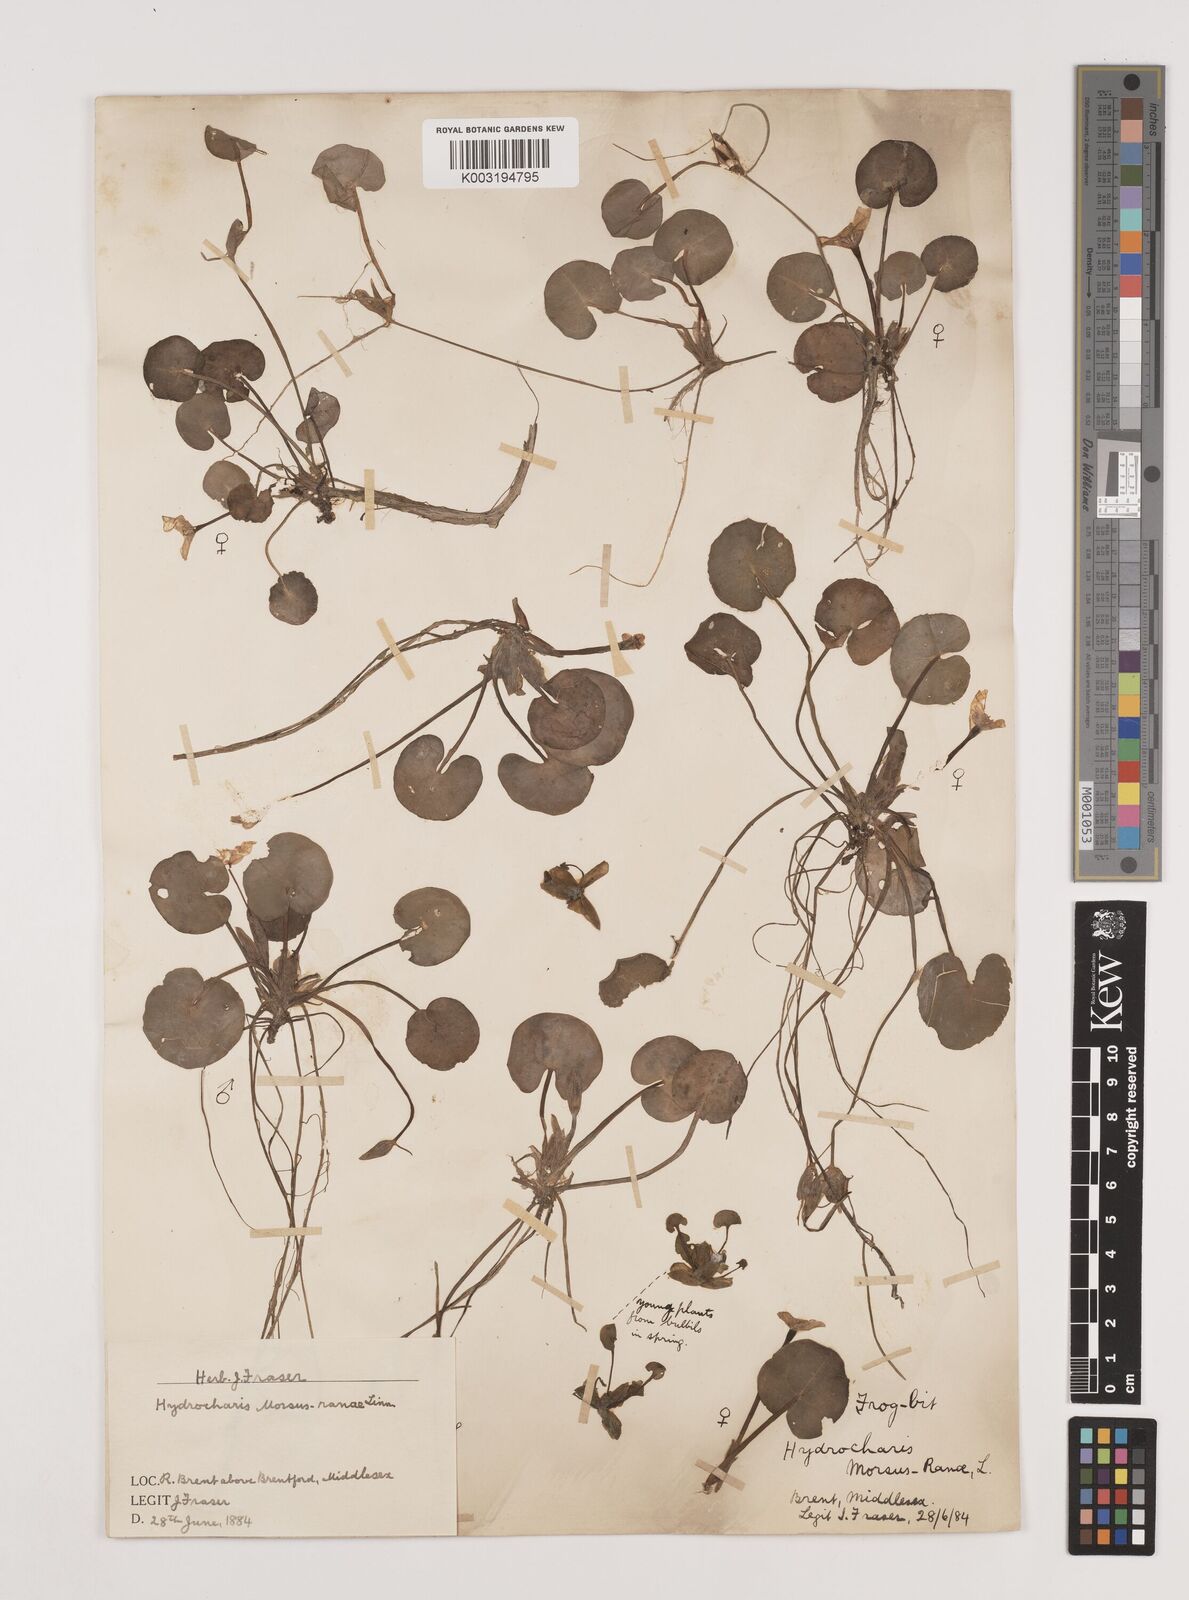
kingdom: Plantae
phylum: Tracheophyta
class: Liliopsida
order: Alismatales
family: Hydrocharitaceae
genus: Hydrocharis
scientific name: Hydrocharis morsus-ranae
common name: Frogbit
